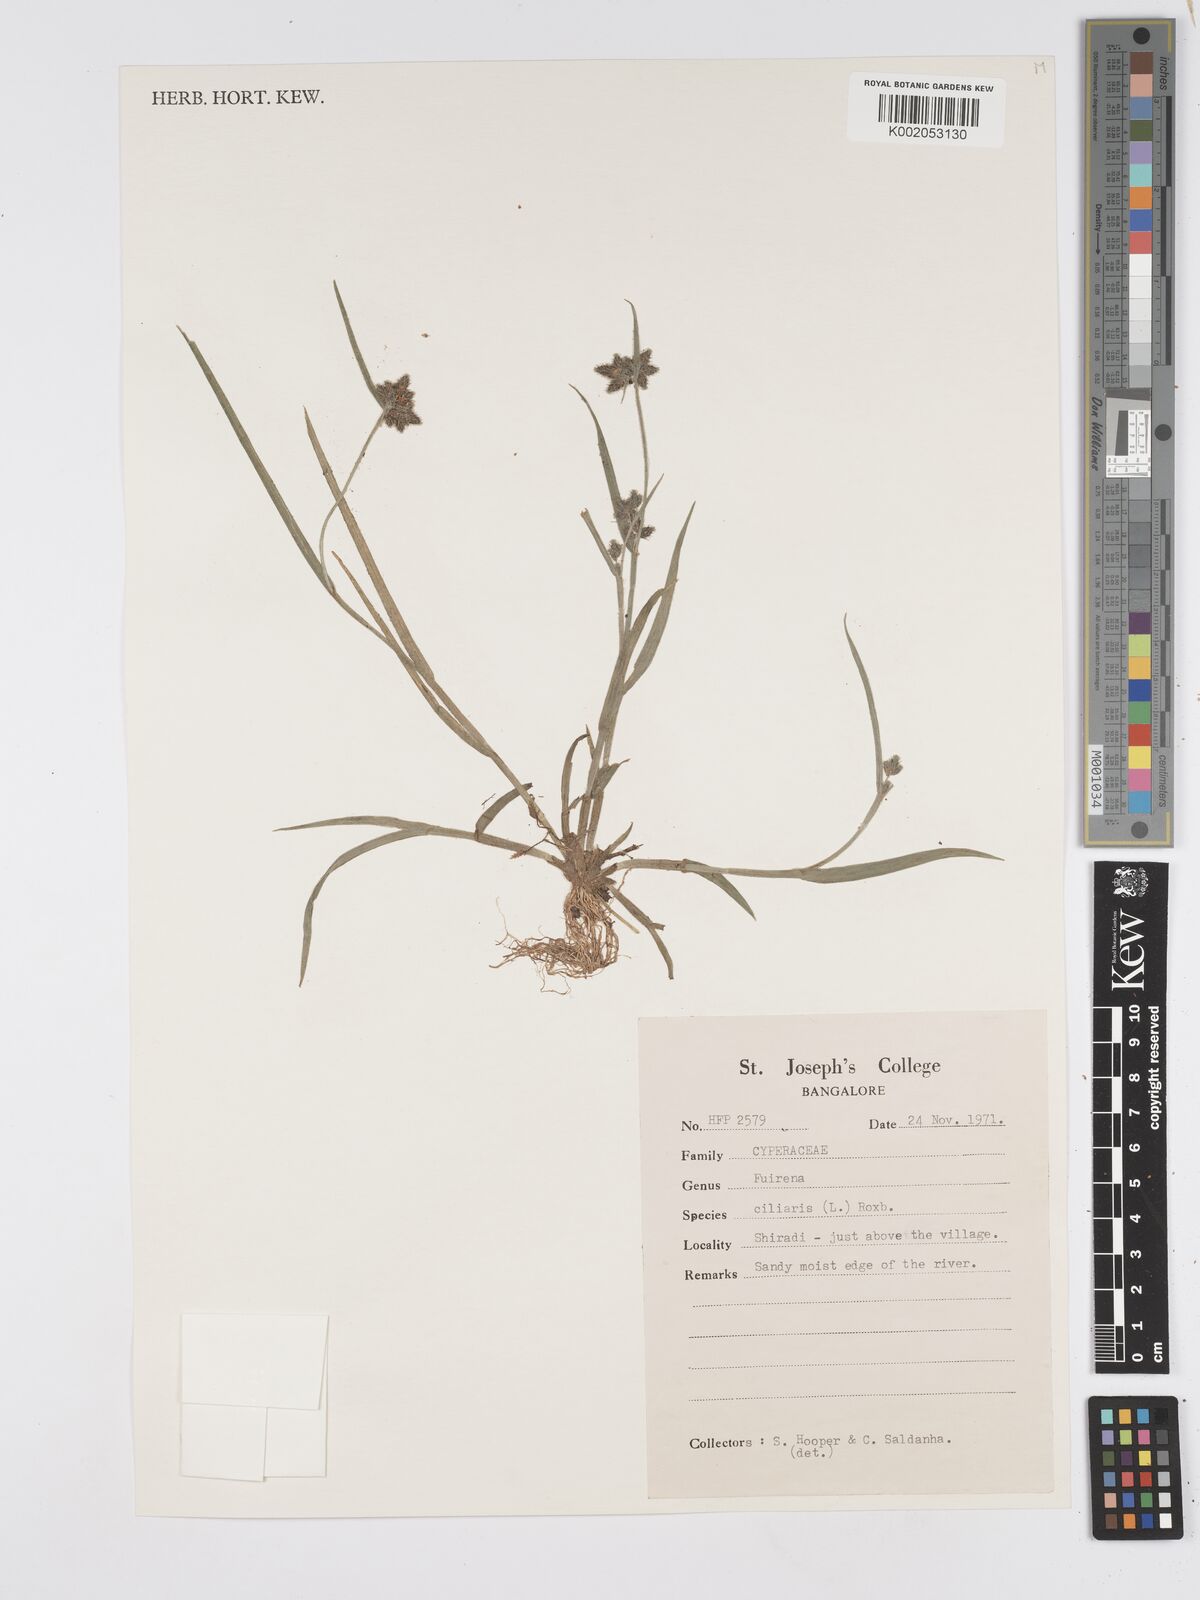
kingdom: Plantae
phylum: Tracheophyta
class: Liliopsida
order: Poales
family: Cyperaceae
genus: Fuirena
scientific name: Fuirena ciliaris
